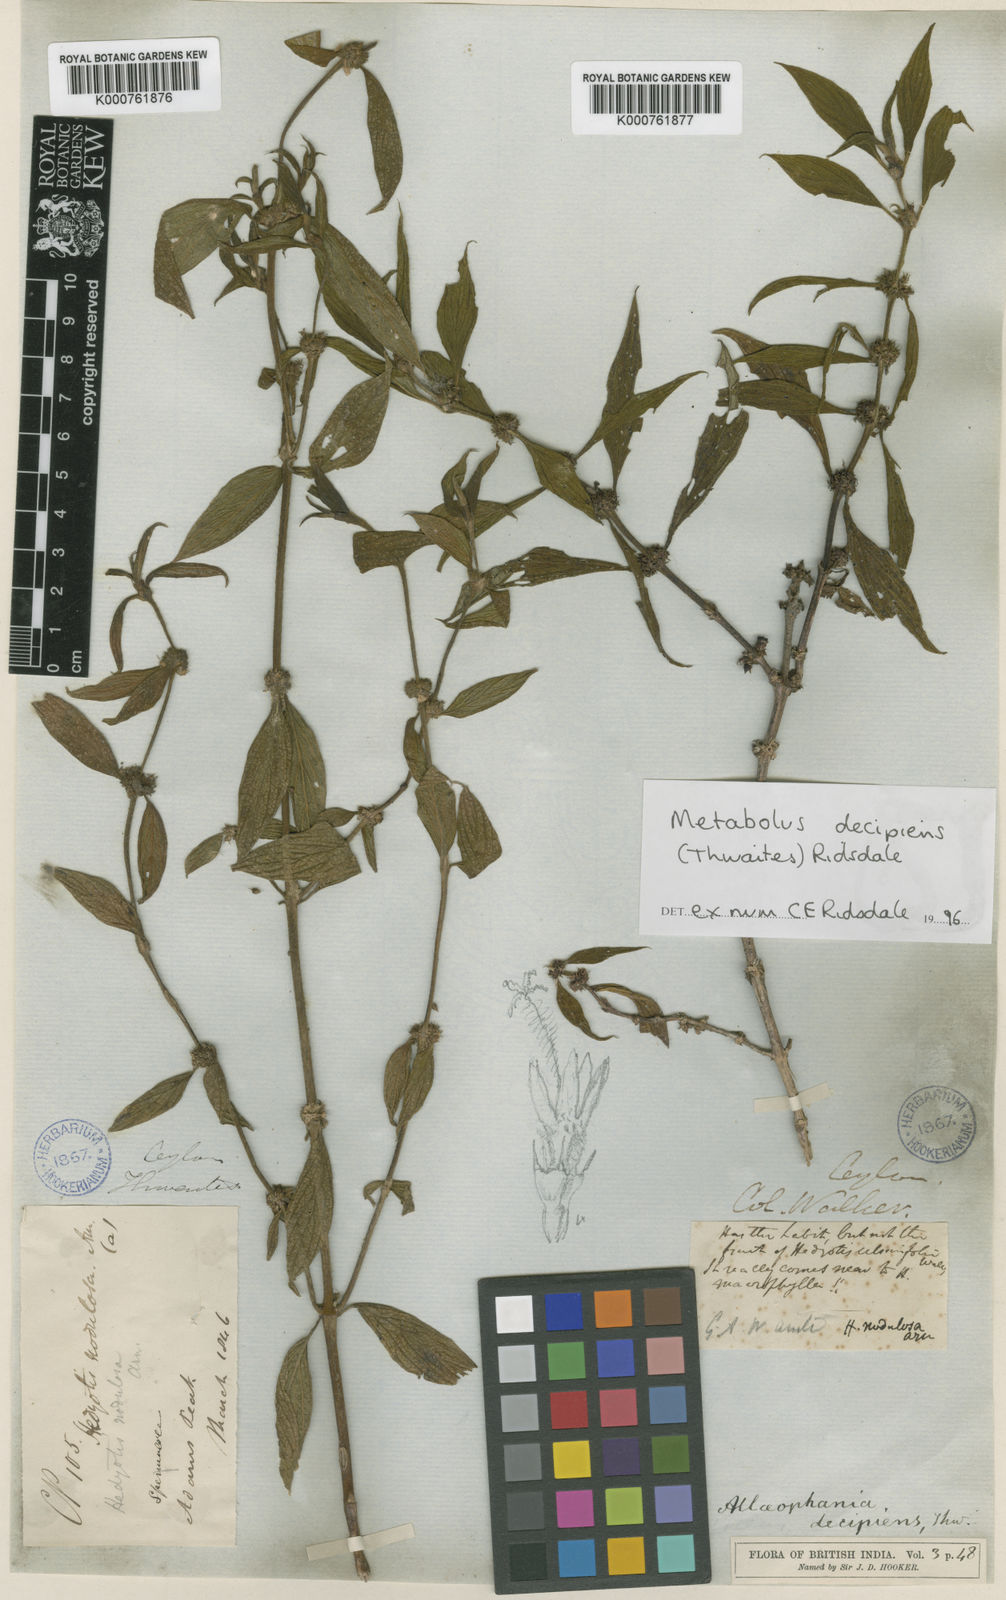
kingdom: Plantae
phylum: Tracheophyta
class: Magnoliopsida
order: Gentianales
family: Rubiaceae
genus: Hedyotis
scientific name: Hedyotis
